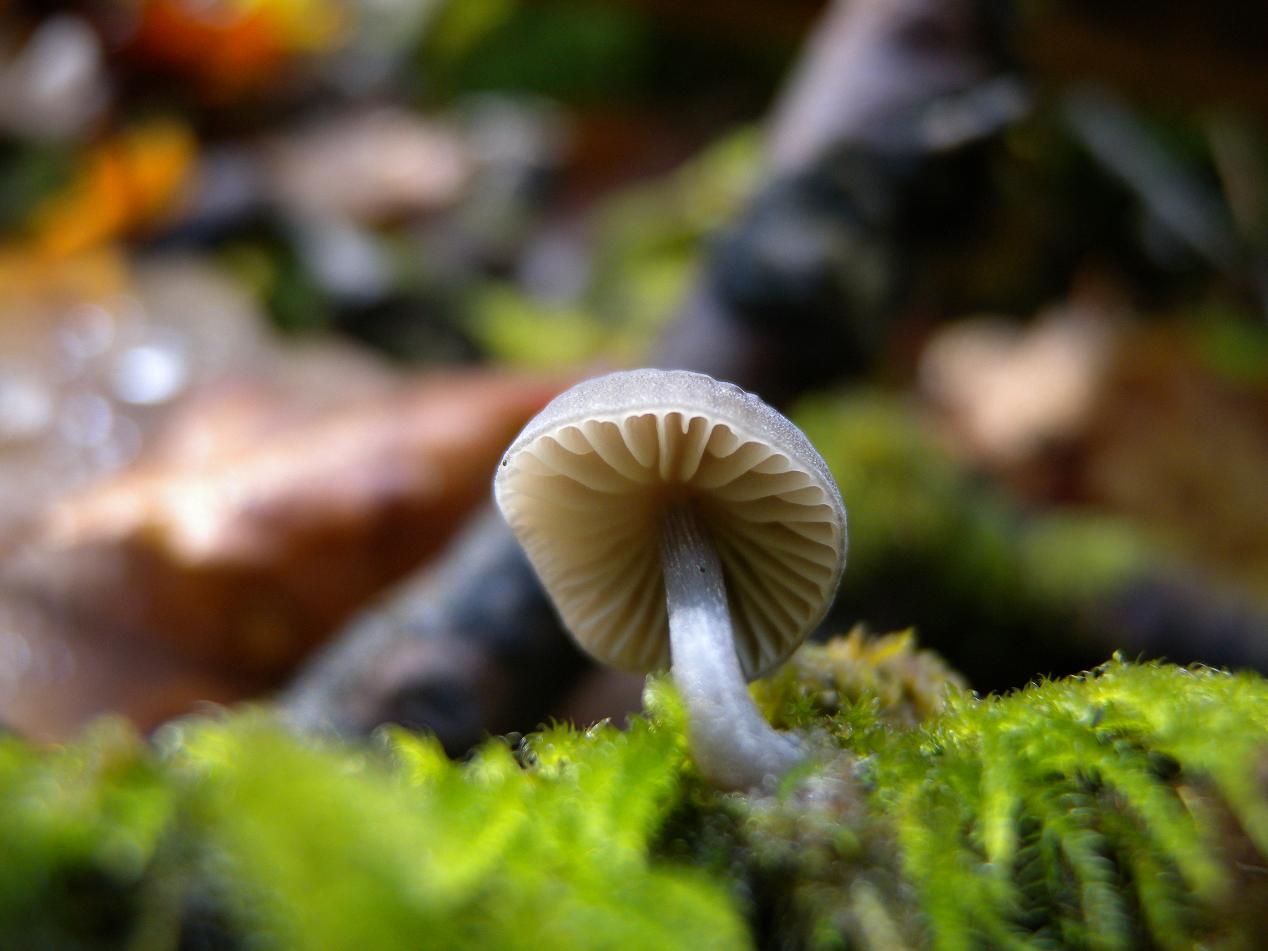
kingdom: Fungi
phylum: Basidiomycota
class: Agaricomycetes
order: Agaricales
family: Mycenaceae
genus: Mycena
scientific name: Mycena abramsii
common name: sommer-huesvamp
